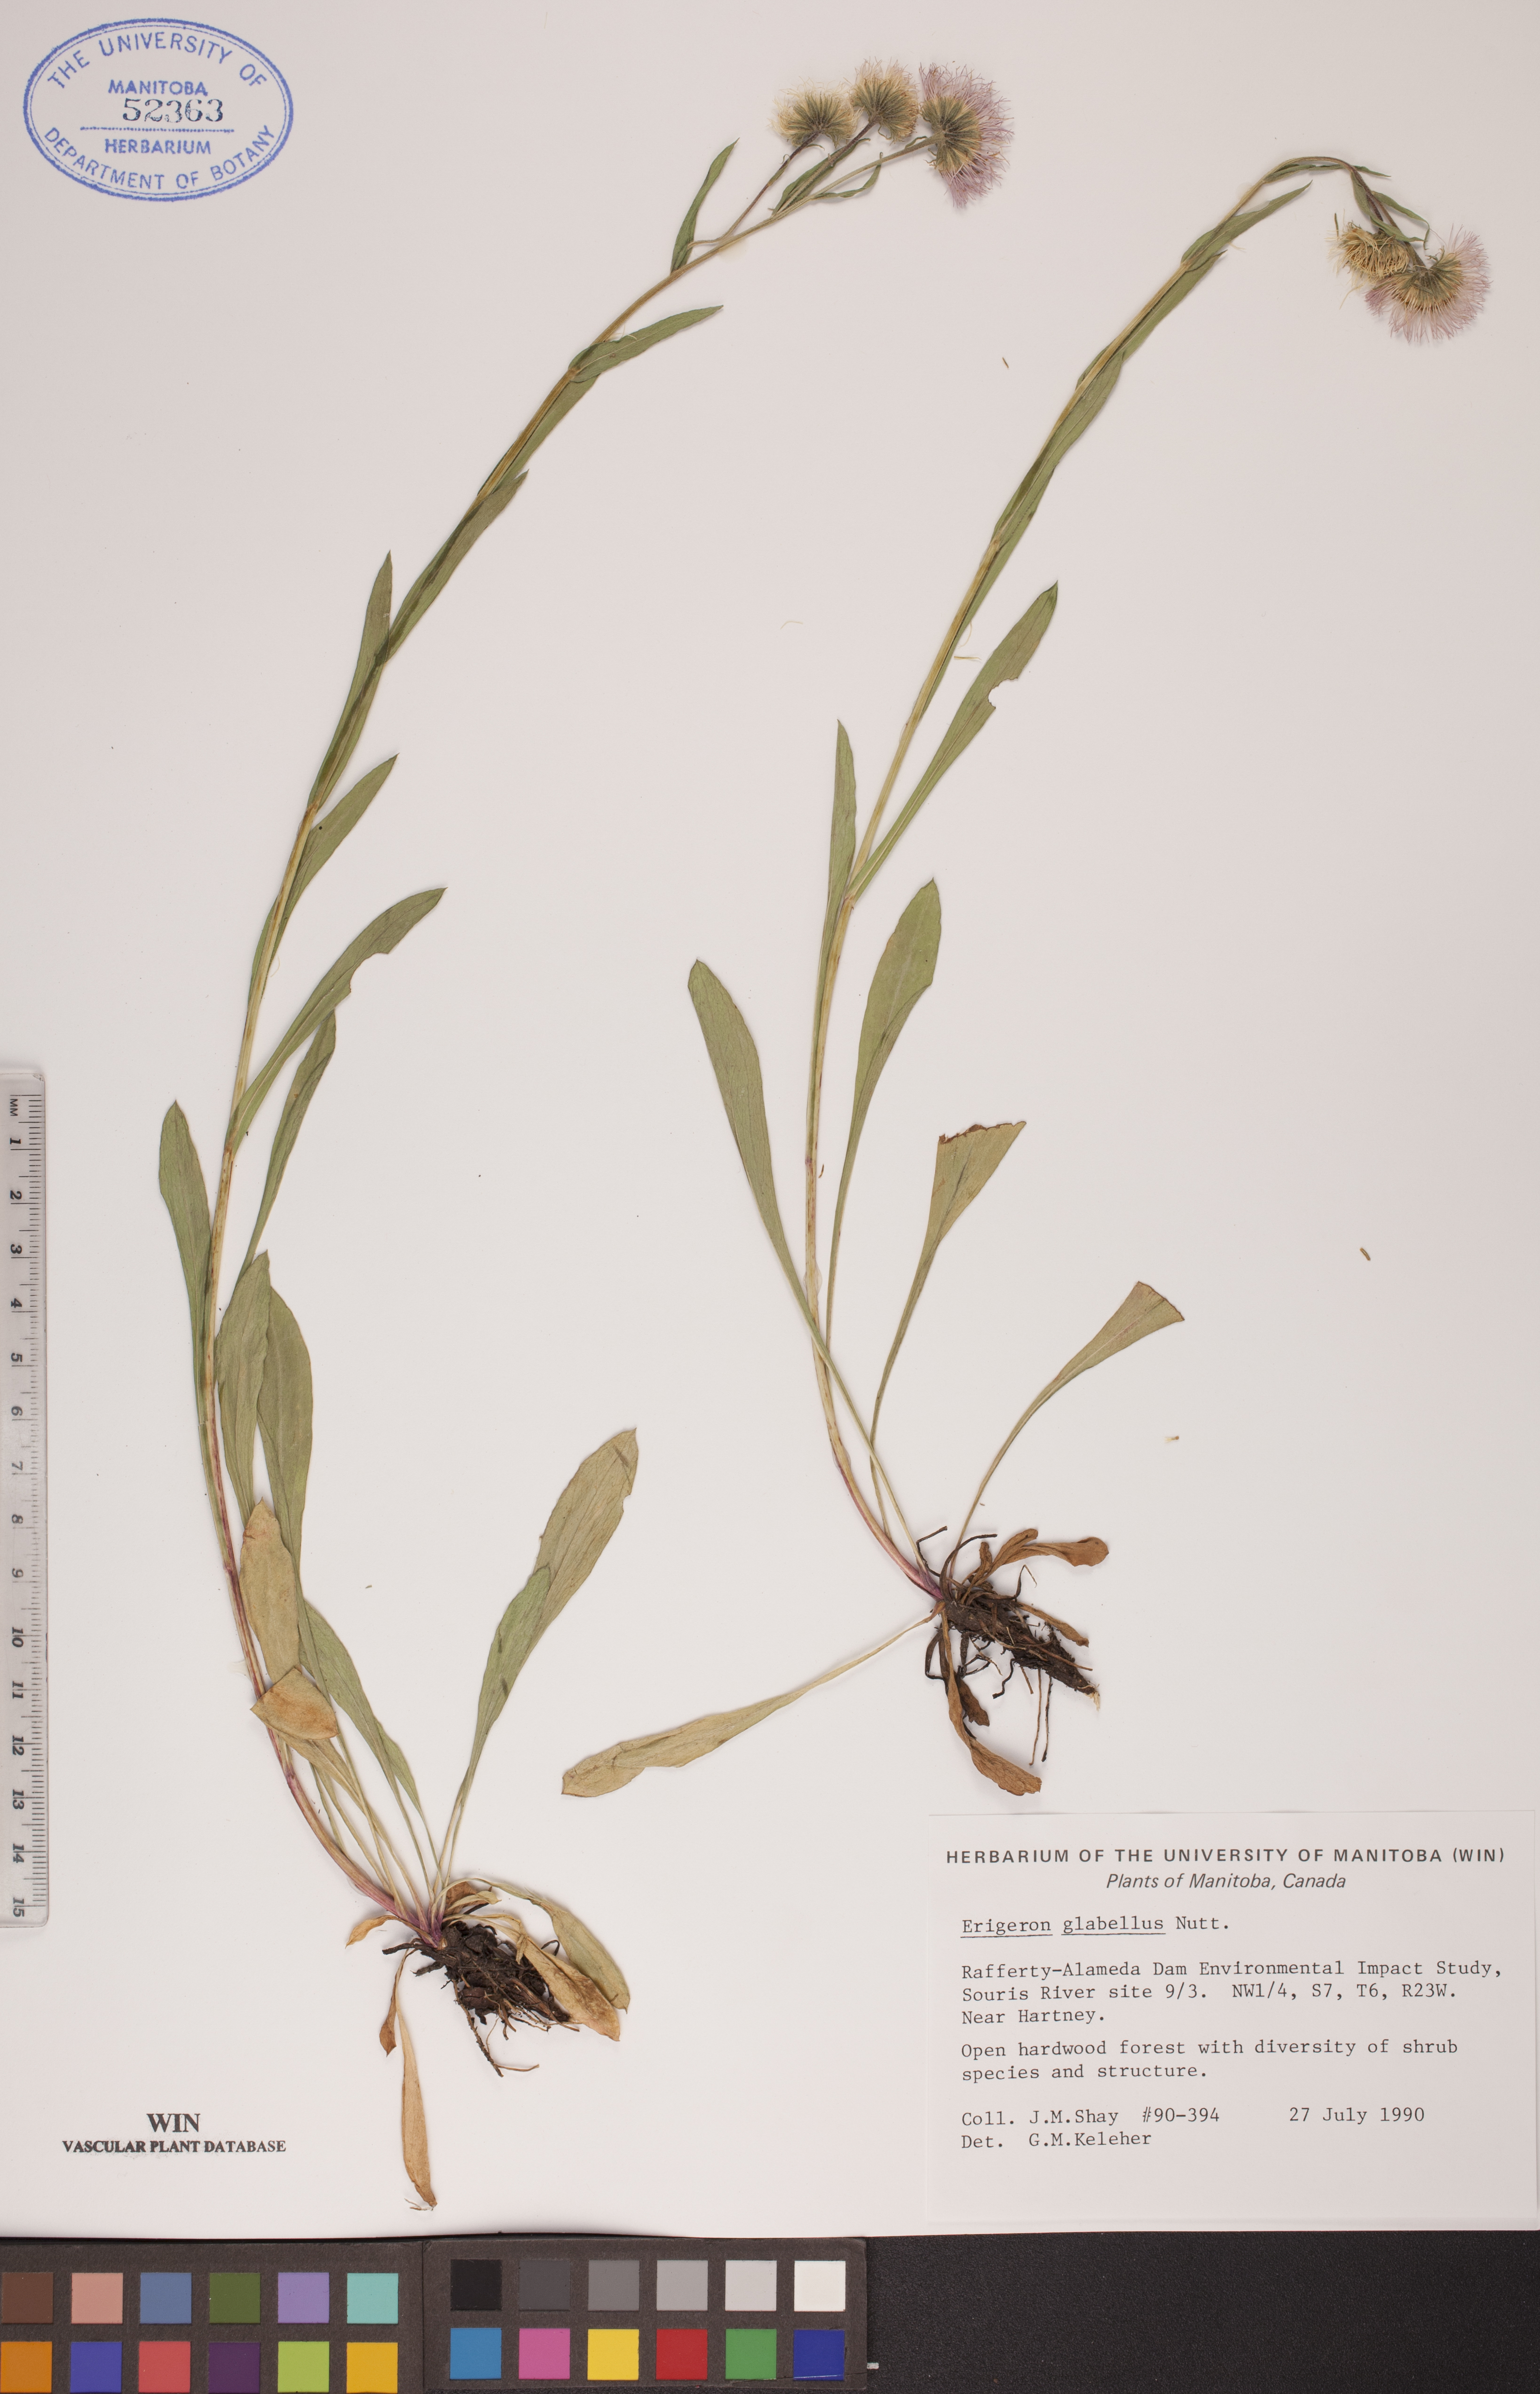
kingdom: Plantae
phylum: Tracheophyta
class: Magnoliopsida
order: Asterales
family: Asteraceae
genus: Erigeron
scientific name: Erigeron glabellus
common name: Smooth fleabane
